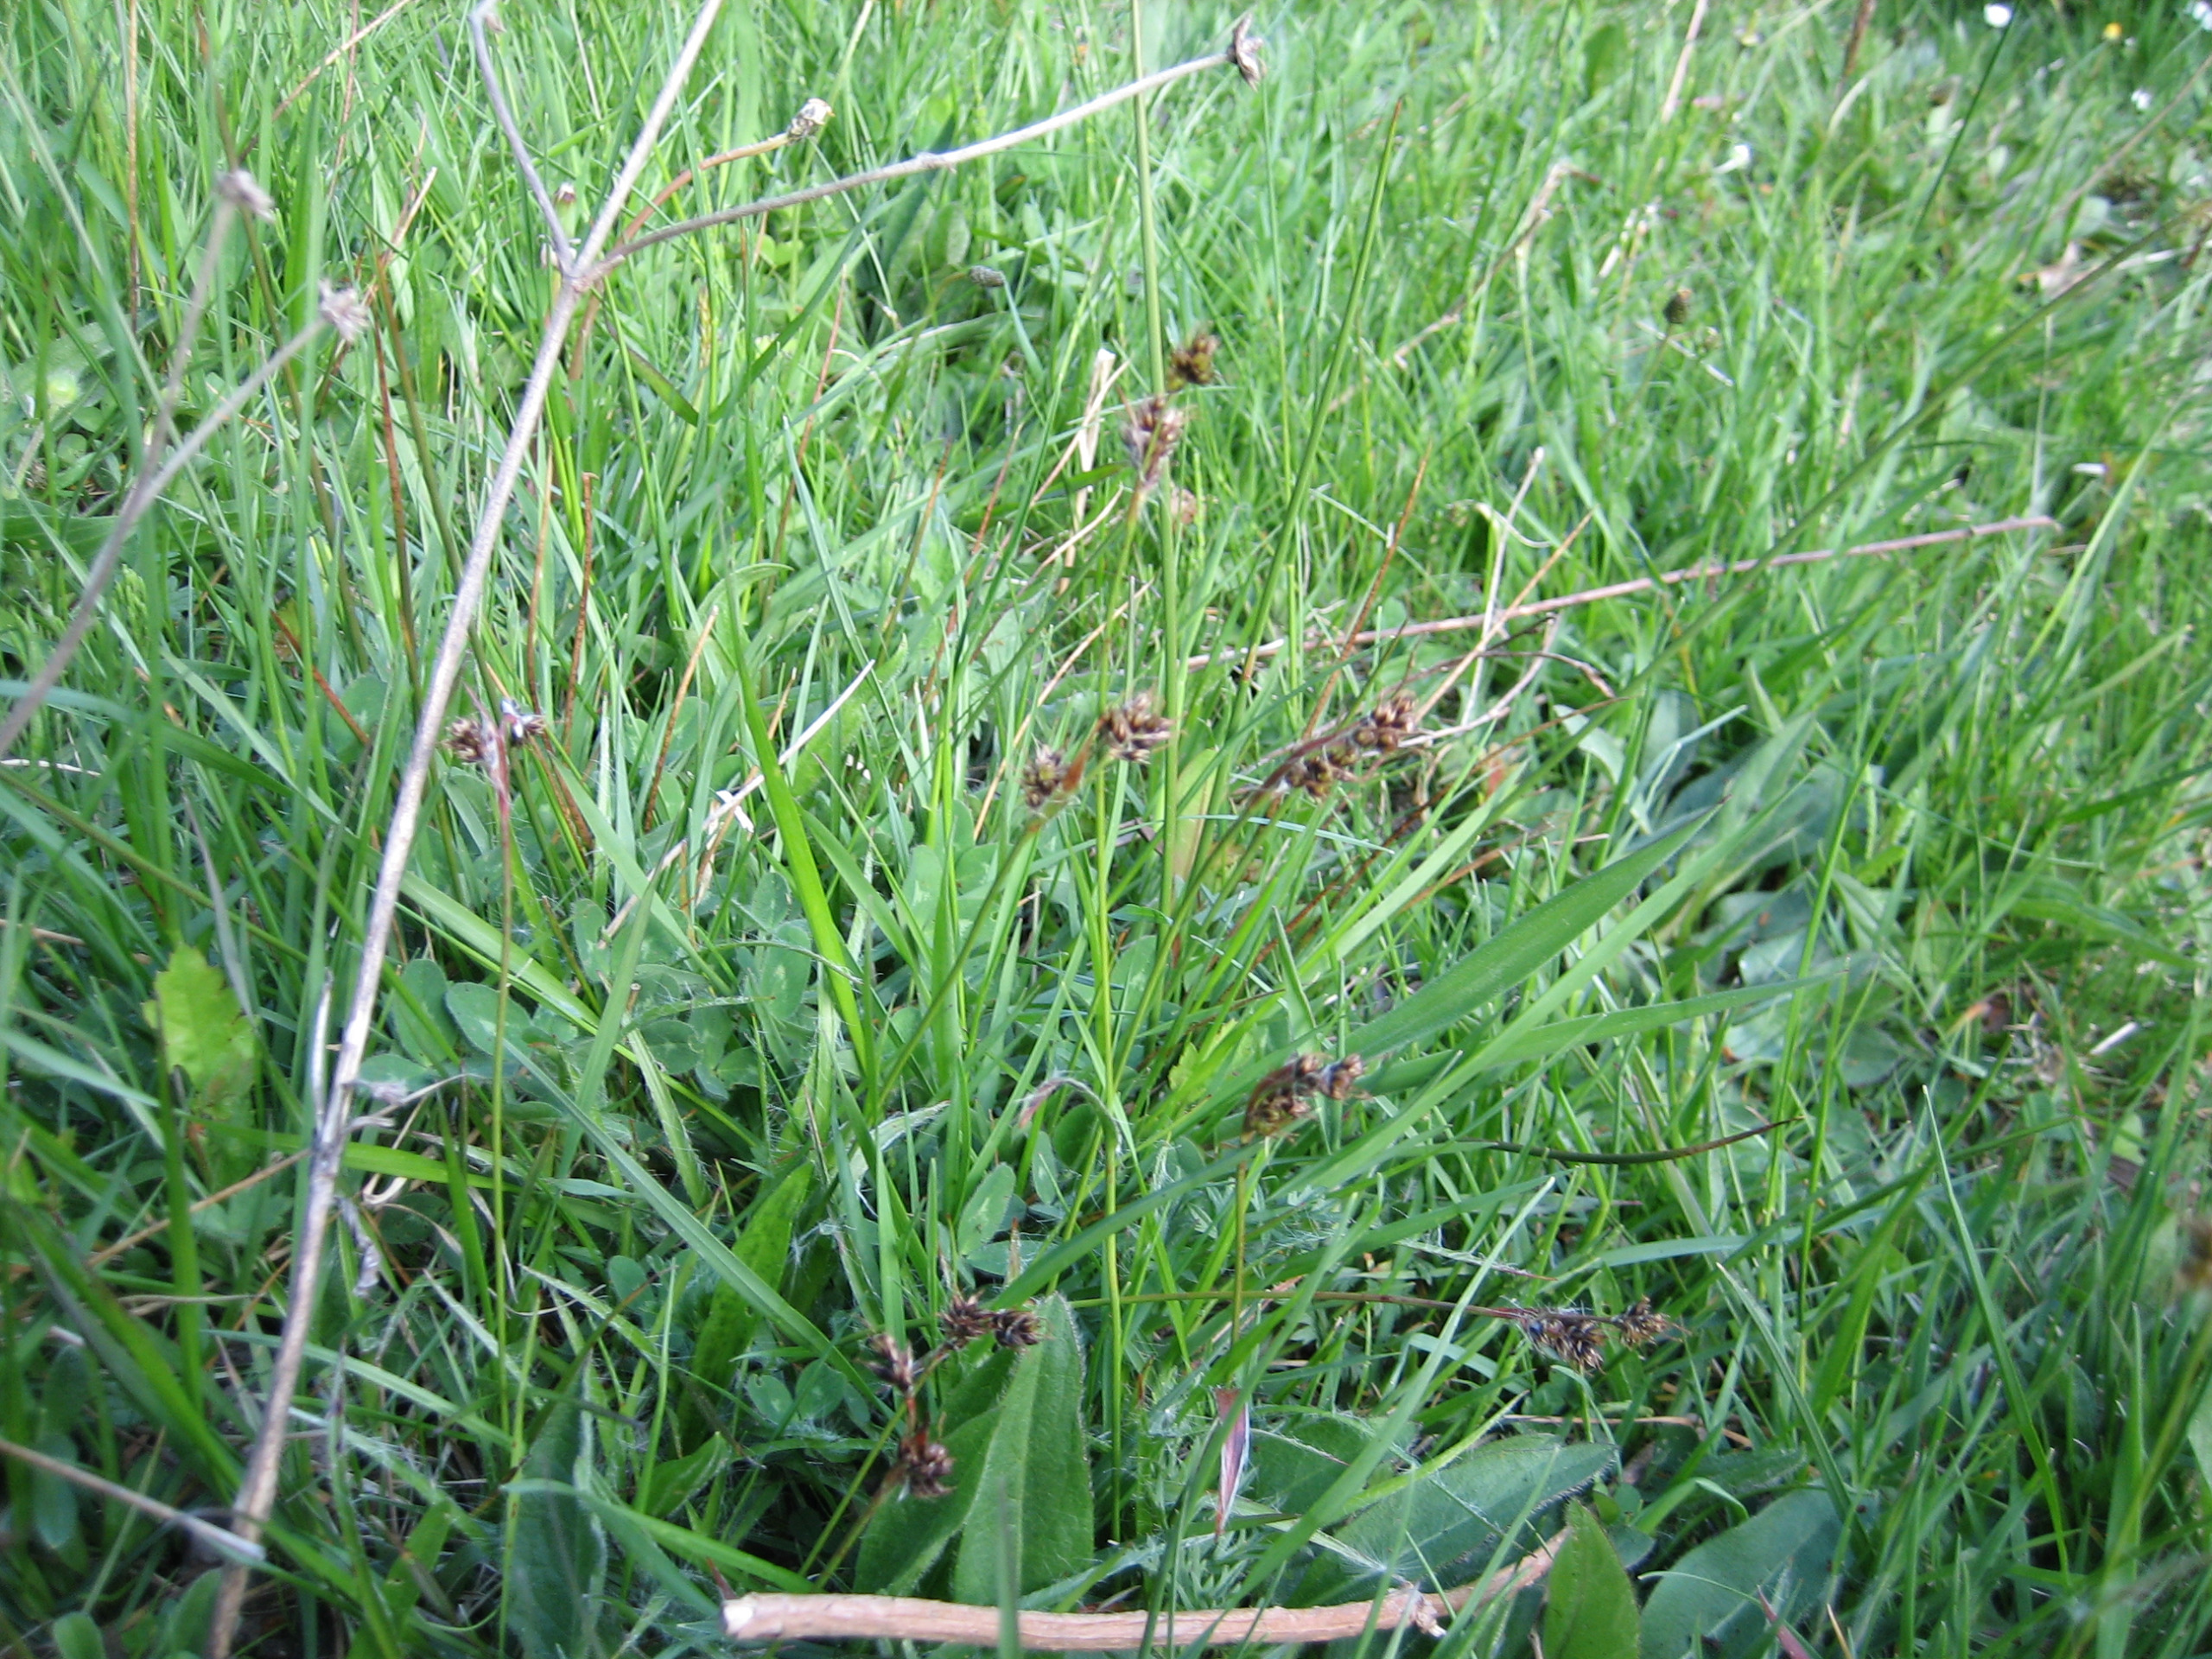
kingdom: Plantae
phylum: Tracheophyta
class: Liliopsida
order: Poales
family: Juncaceae
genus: Luzula
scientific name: Luzula campestris
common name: Mark-frytle
